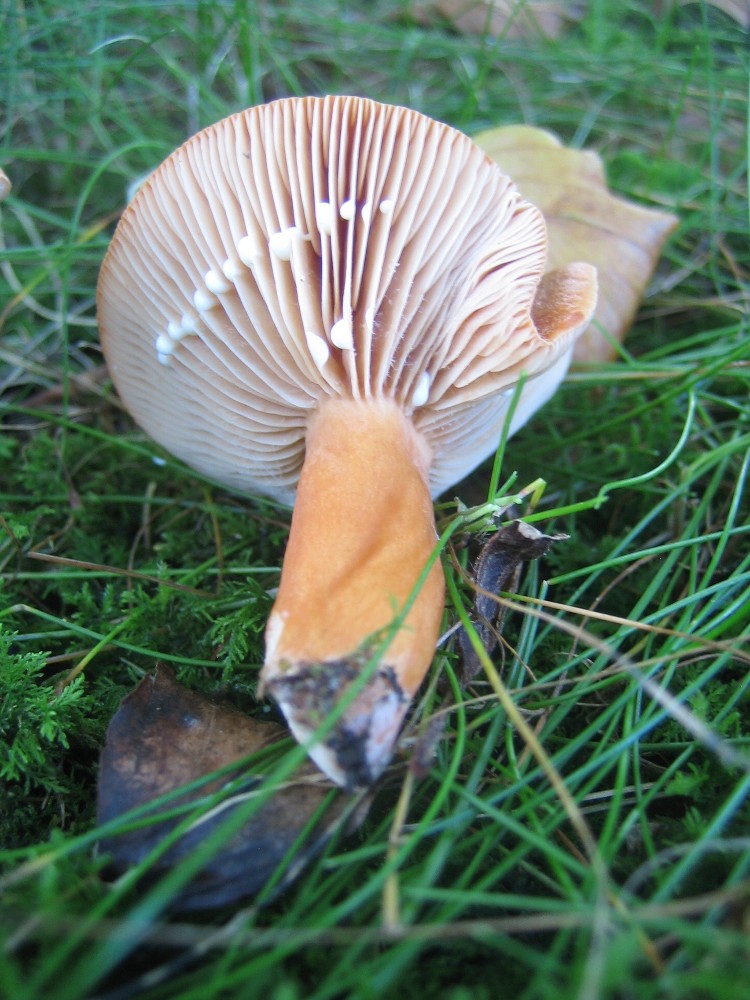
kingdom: Fungi
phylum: Basidiomycota
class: Agaricomycetes
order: Russulales
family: Russulaceae
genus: Lactarius
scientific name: Lactarius aurantiacus
